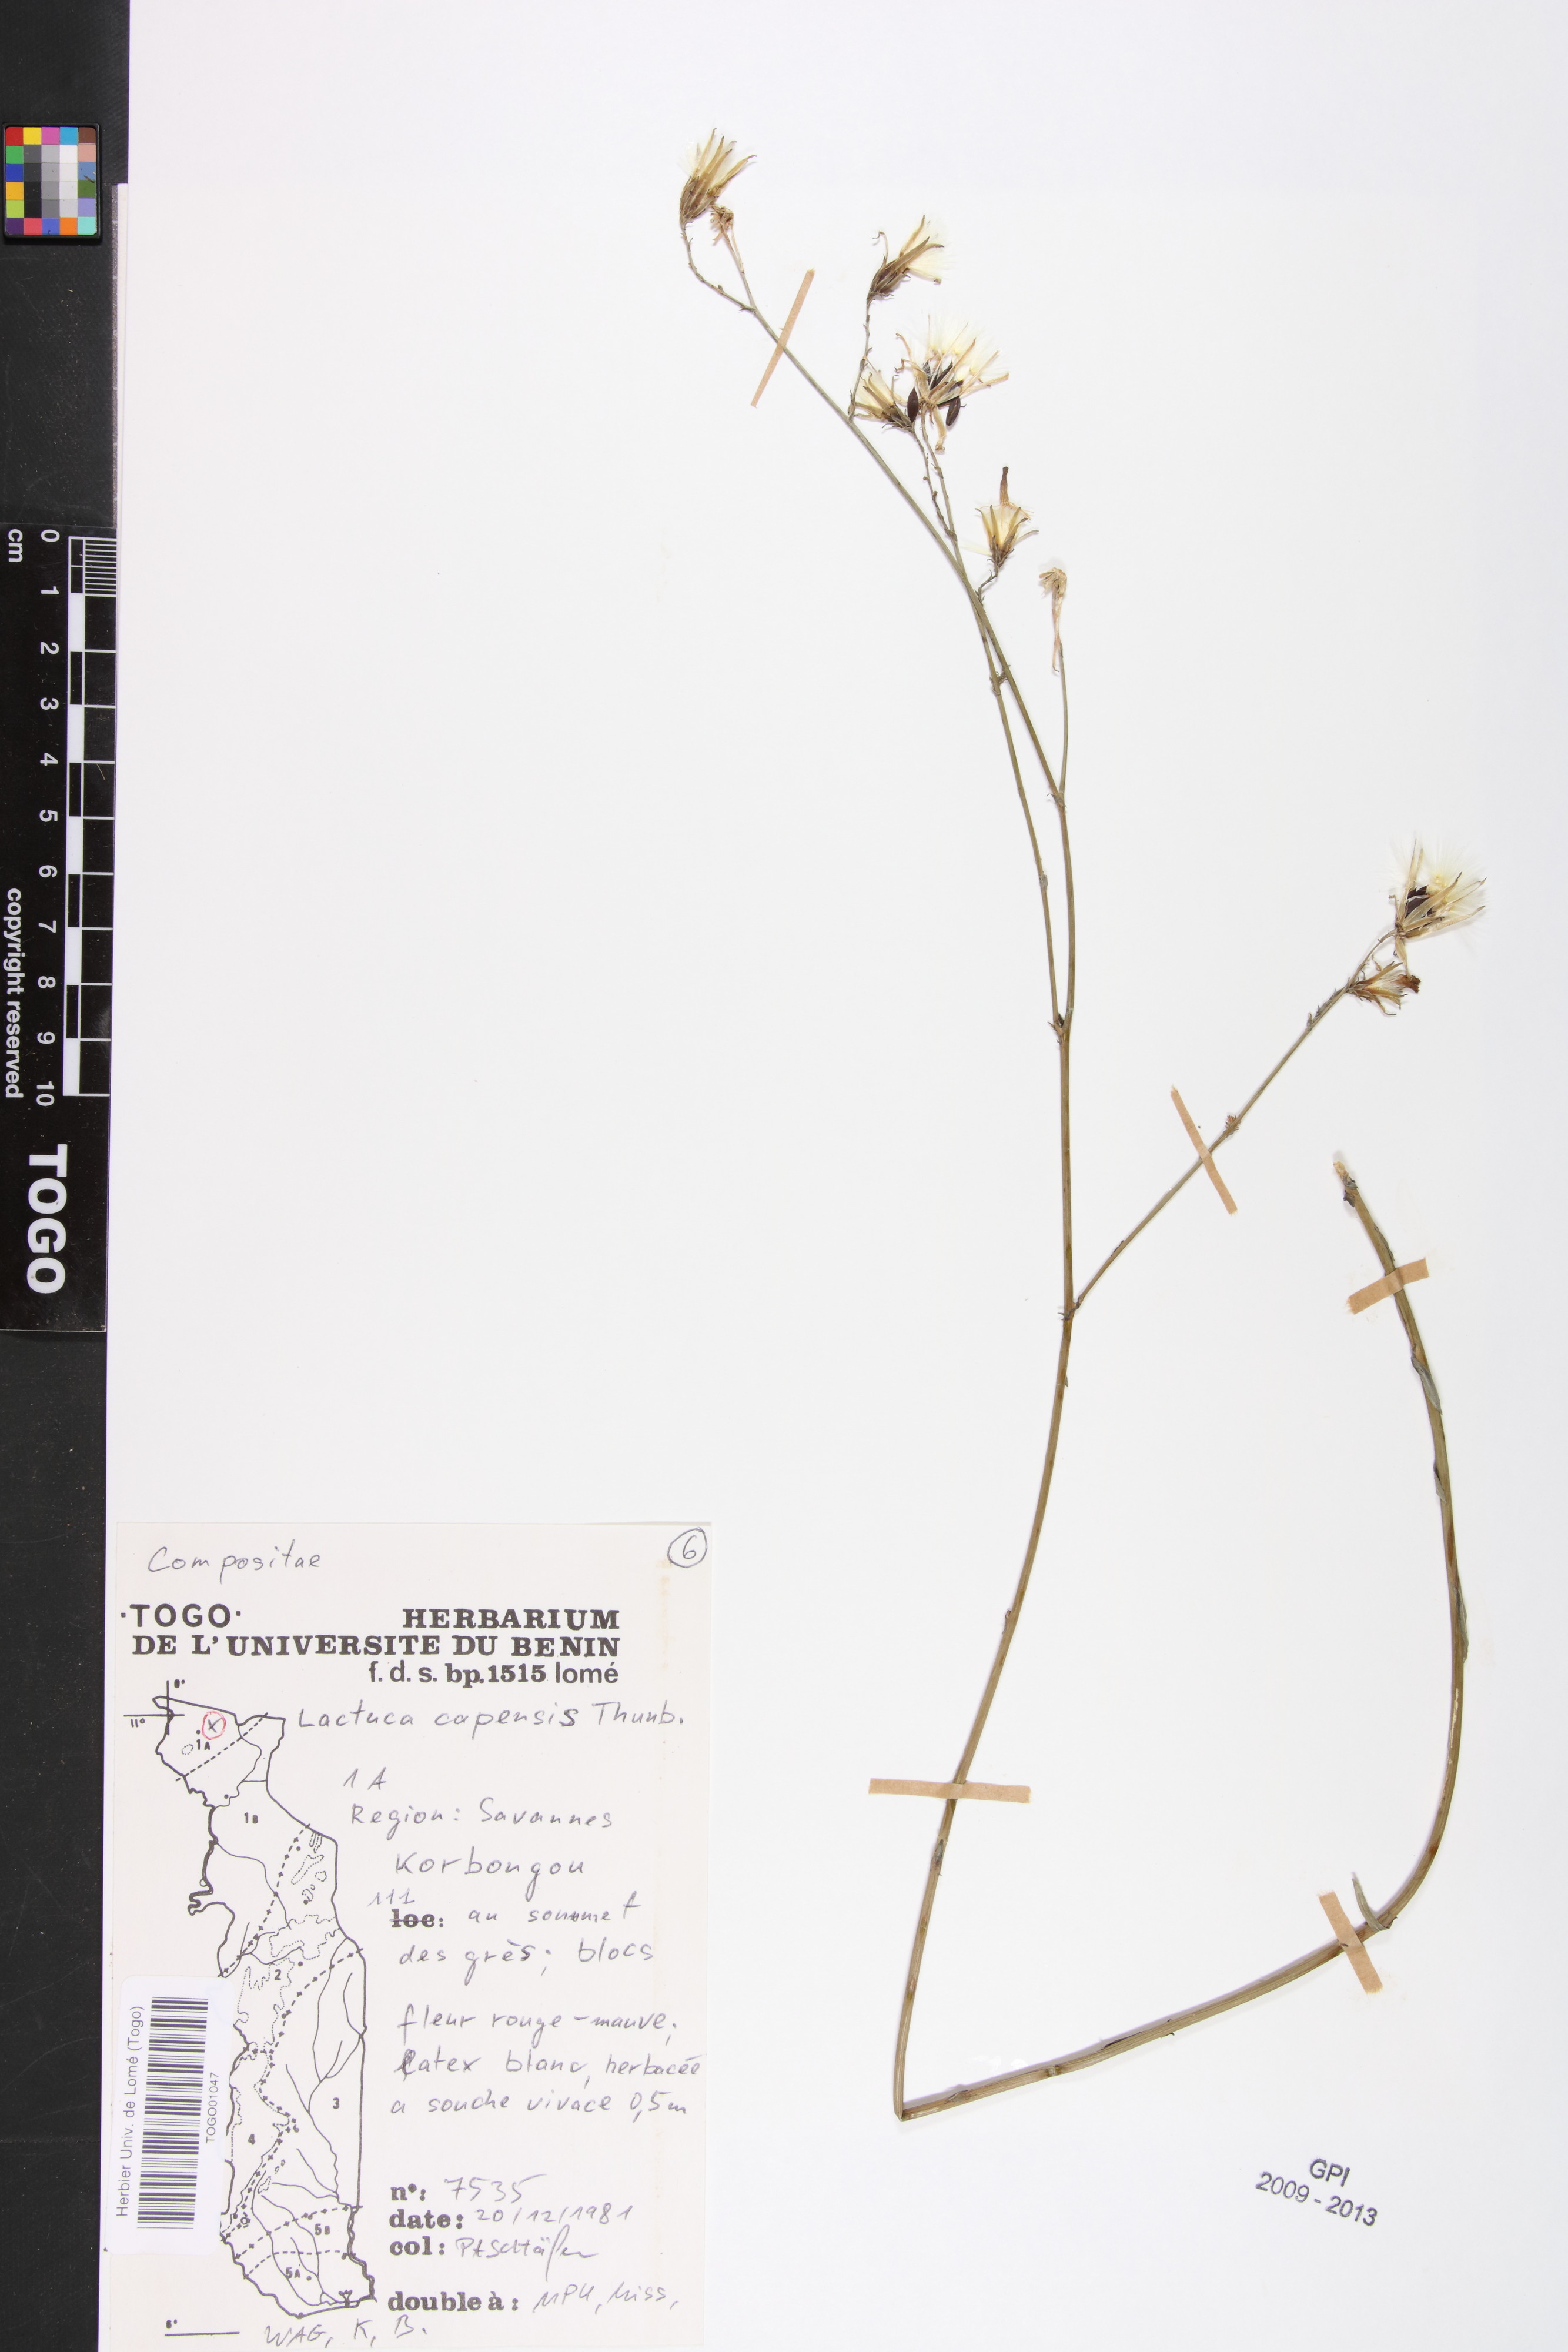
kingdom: Plantae
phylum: Tracheophyta
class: Magnoliopsida
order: Asterales
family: Asteraceae
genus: Lactuca
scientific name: Lactuca inermis
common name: Wild lettuce
